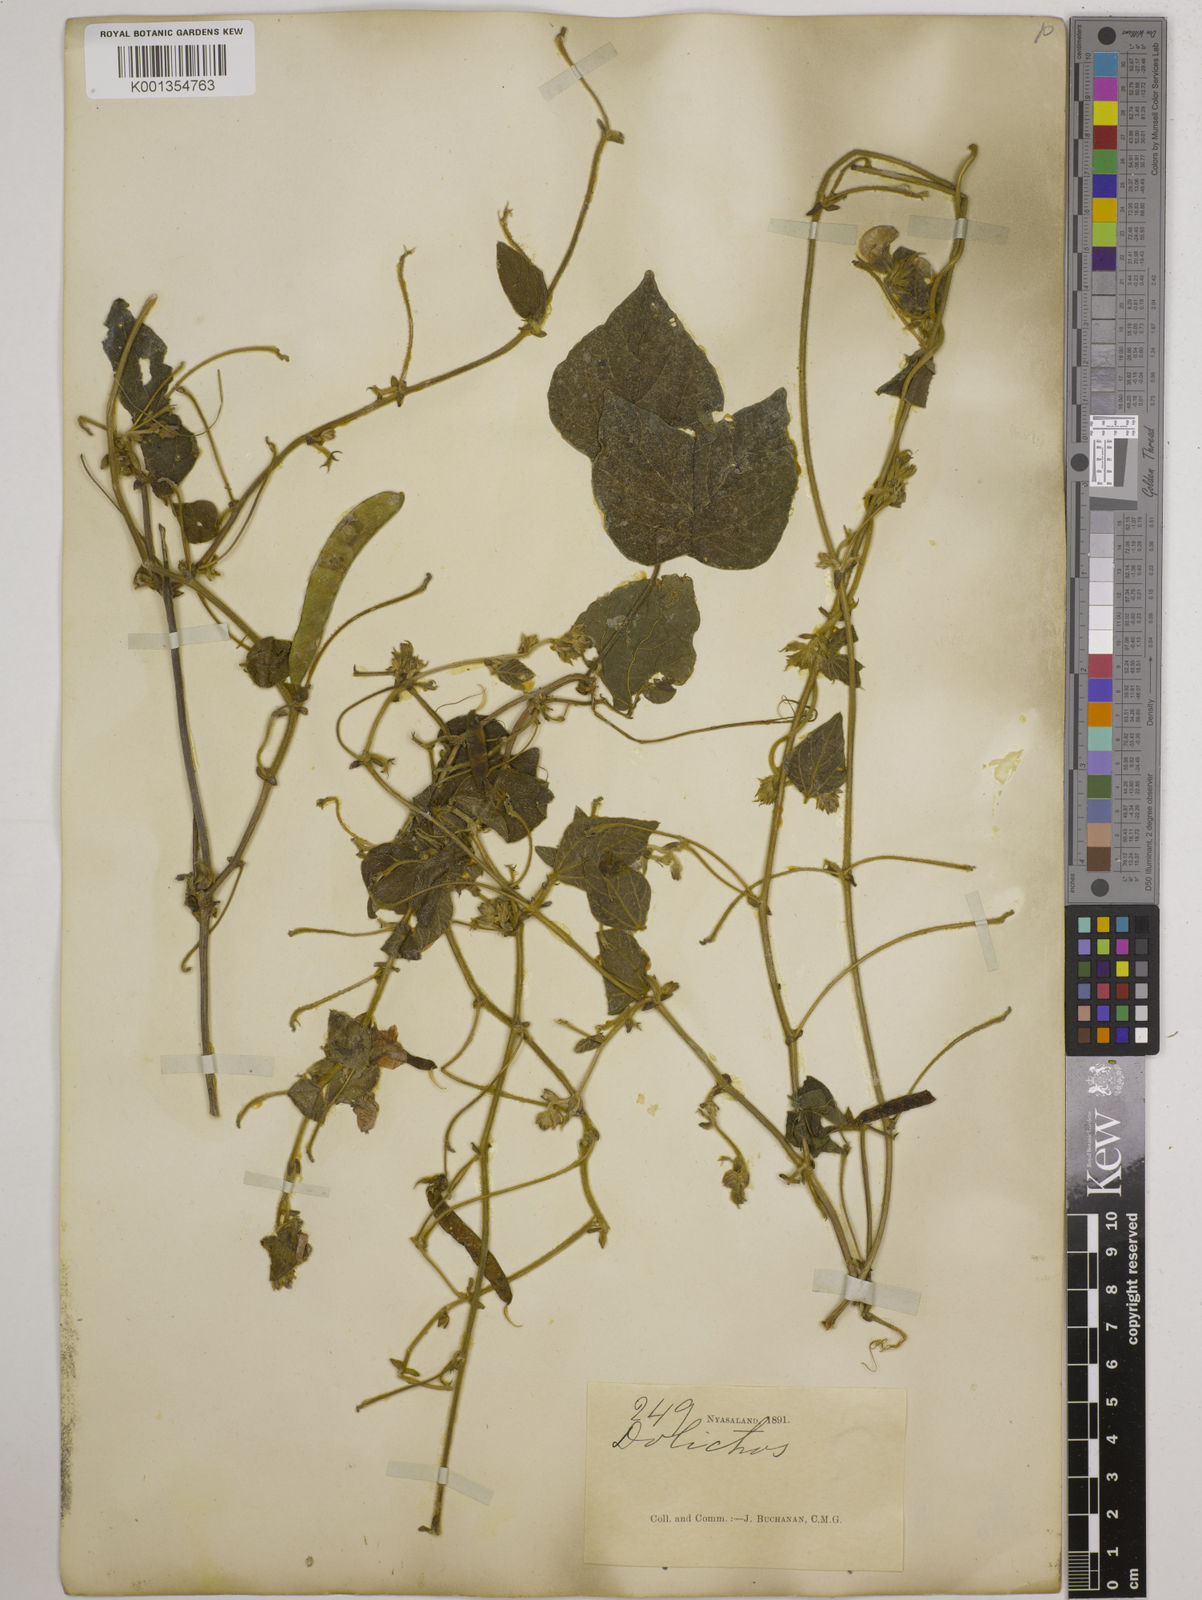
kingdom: Plantae
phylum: Tracheophyta
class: Magnoliopsida
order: Fabales
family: Fabaceae
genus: Dolichos
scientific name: Dolichos
